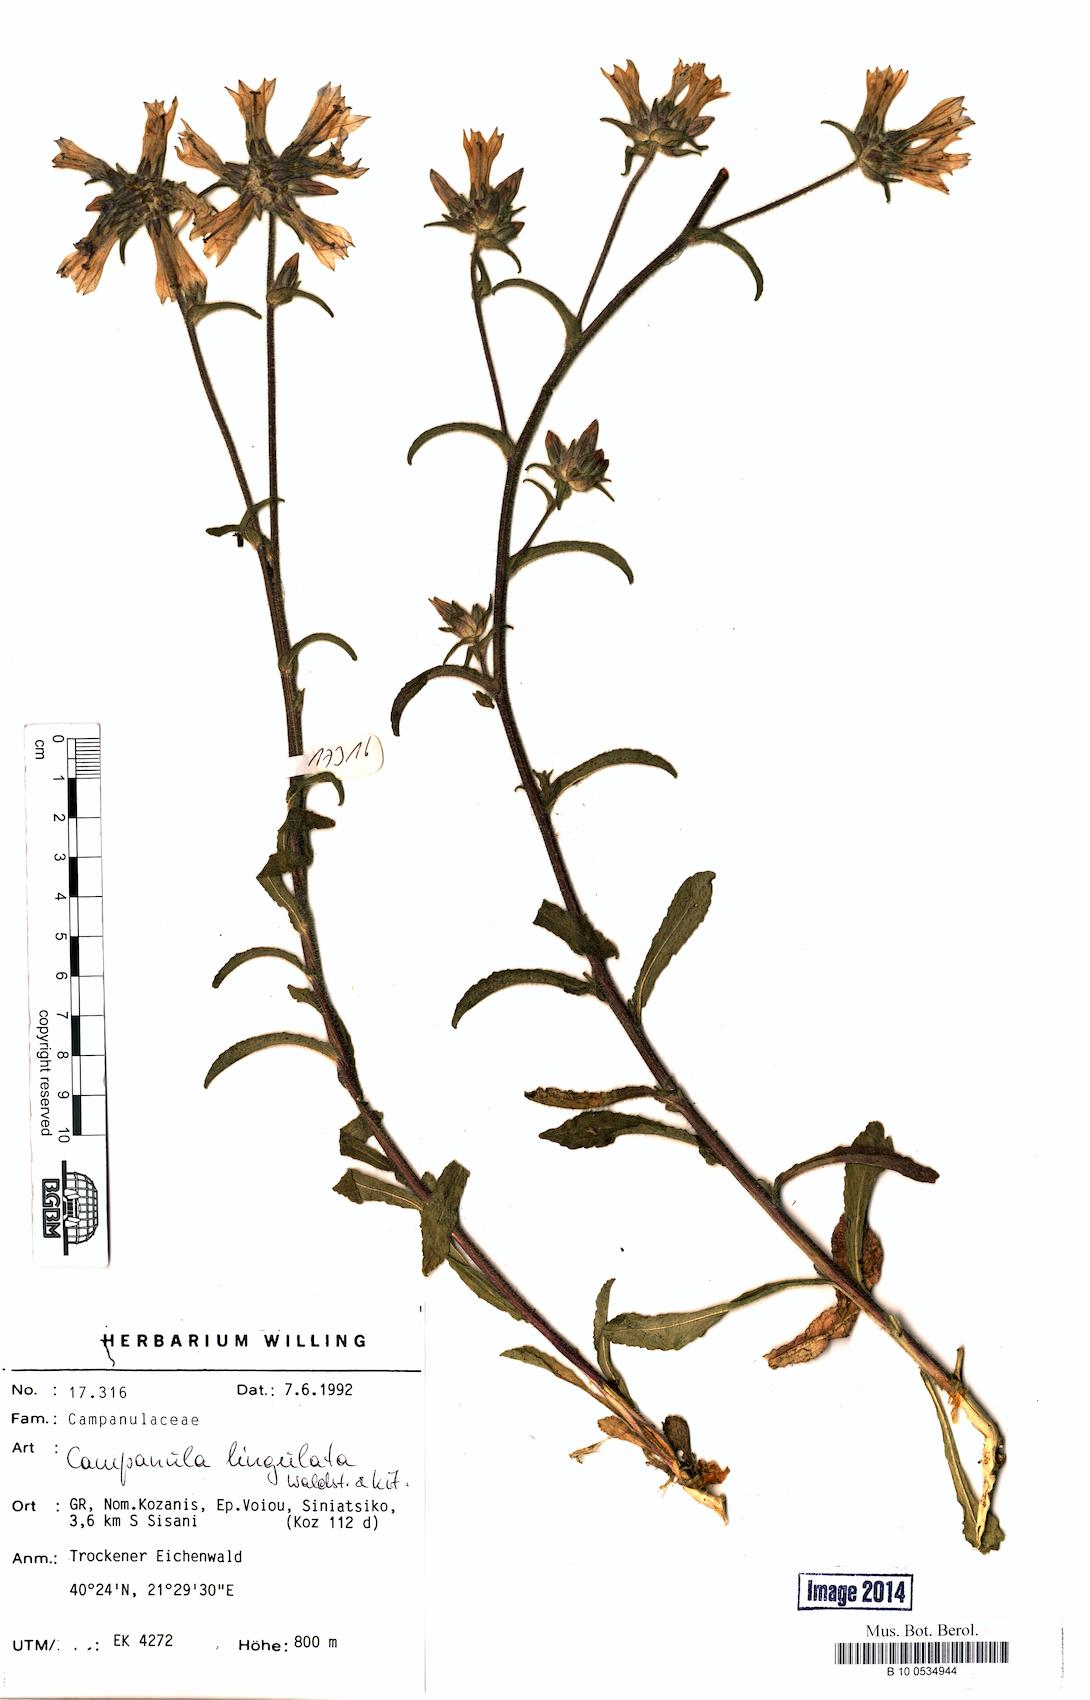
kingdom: Plantae
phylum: Tracheophyta
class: Magnoliopsida
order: Asterales
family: Campanulaceae
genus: Campanula
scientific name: Campanula lingulata
